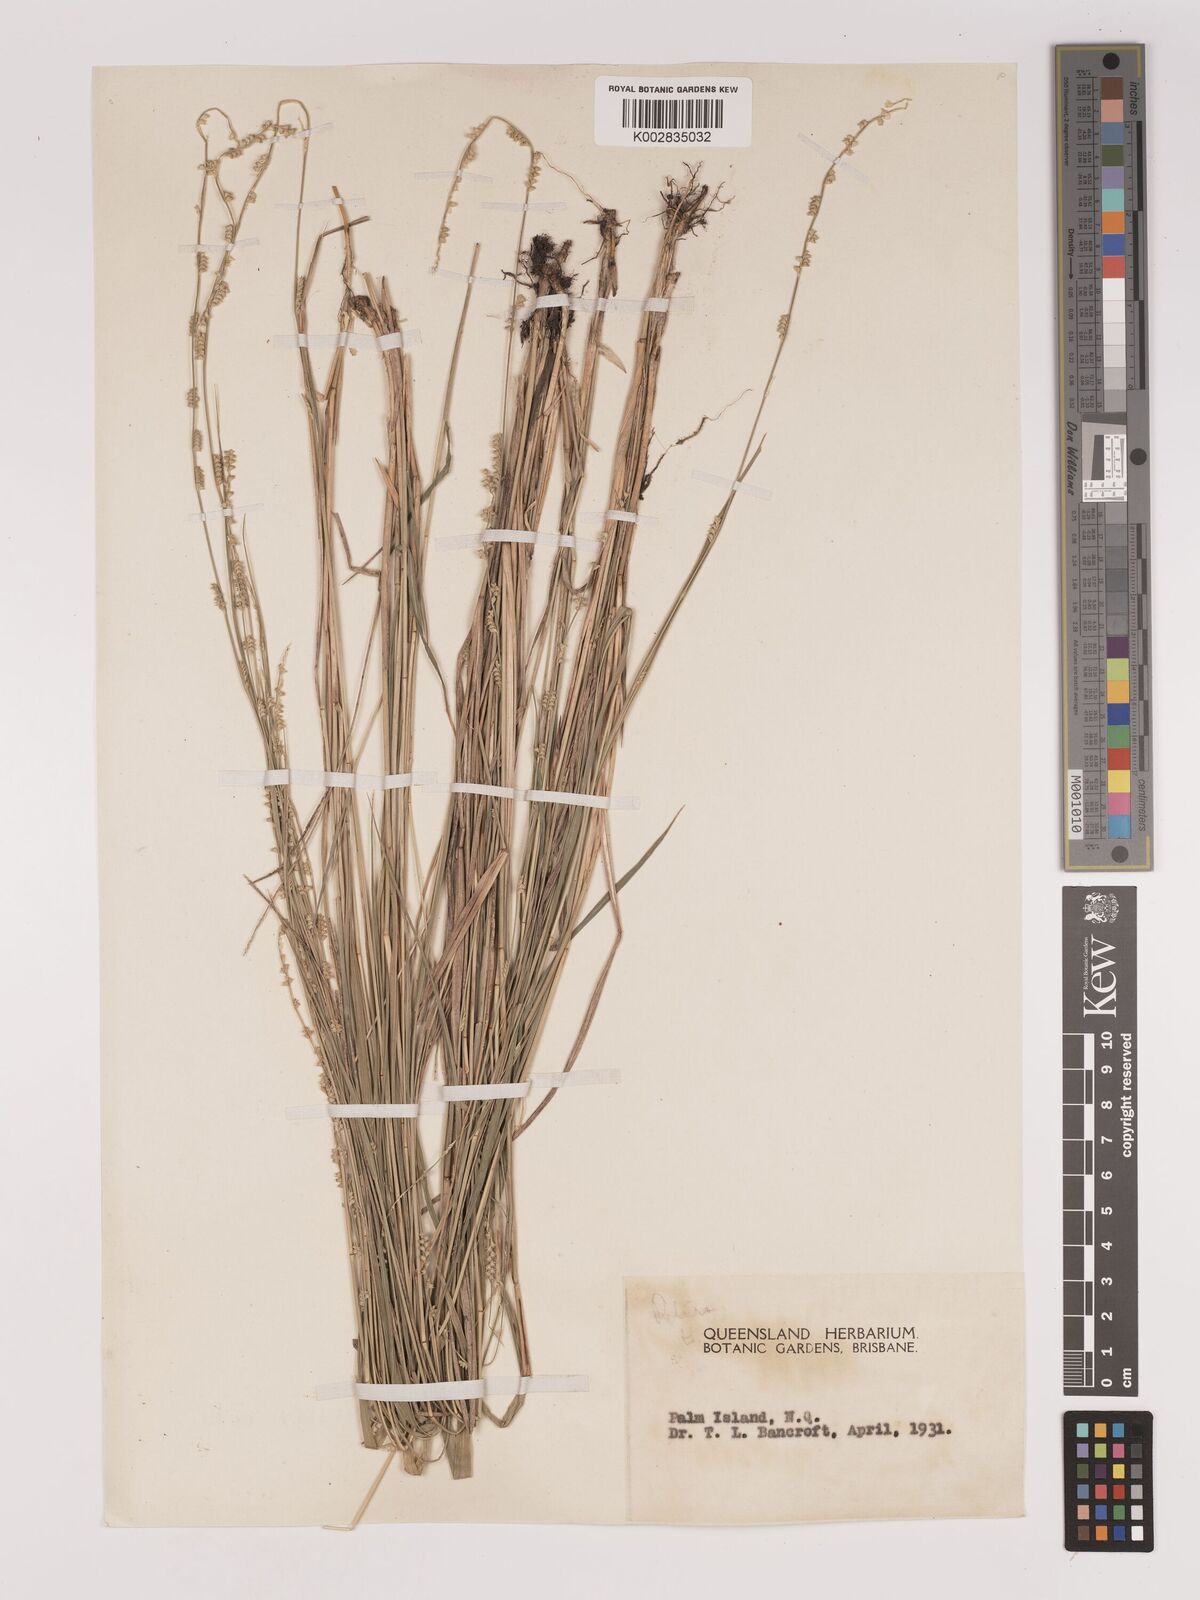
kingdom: Plantae
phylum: Tracheophyta
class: Liliopsida
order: Poales
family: Poaceae
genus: Setaria
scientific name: Setaria
